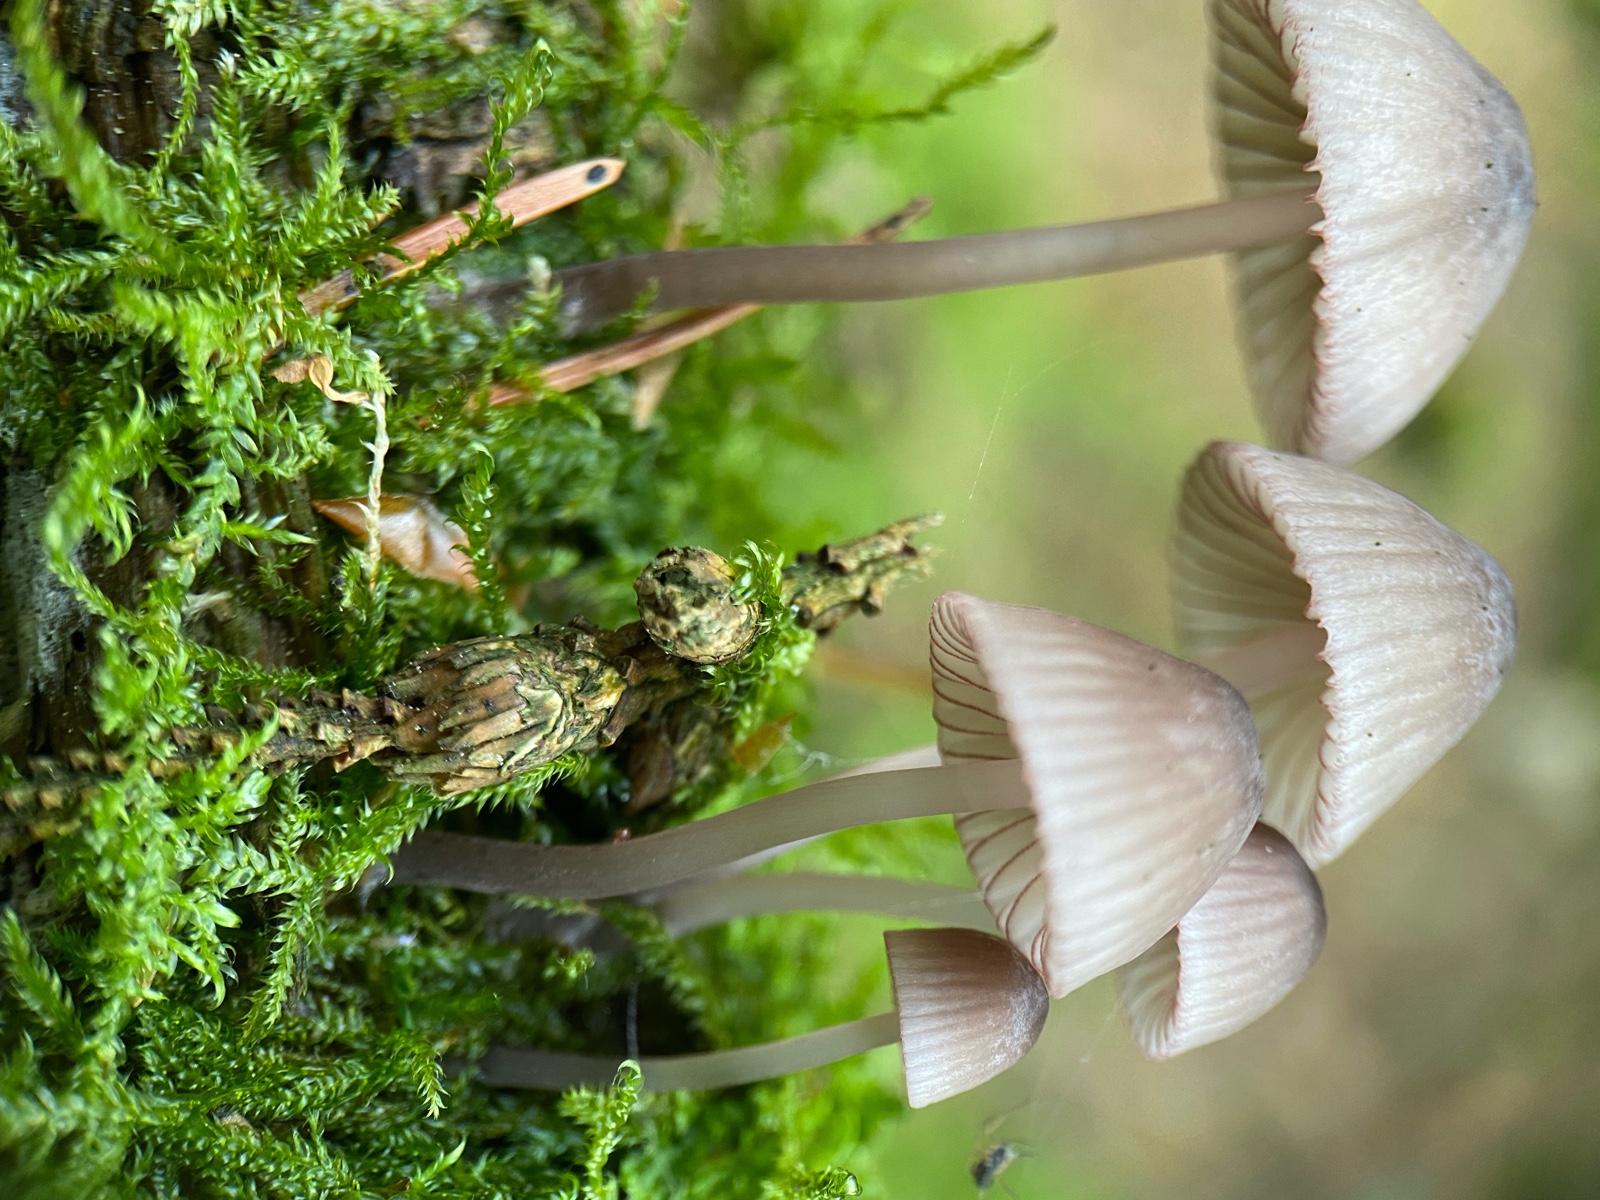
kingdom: Fungi
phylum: Basidiomycota
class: Agaricomycetes
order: Agaricales
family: Mycenaceae
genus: Mycena
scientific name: Mycena rubromarginata
